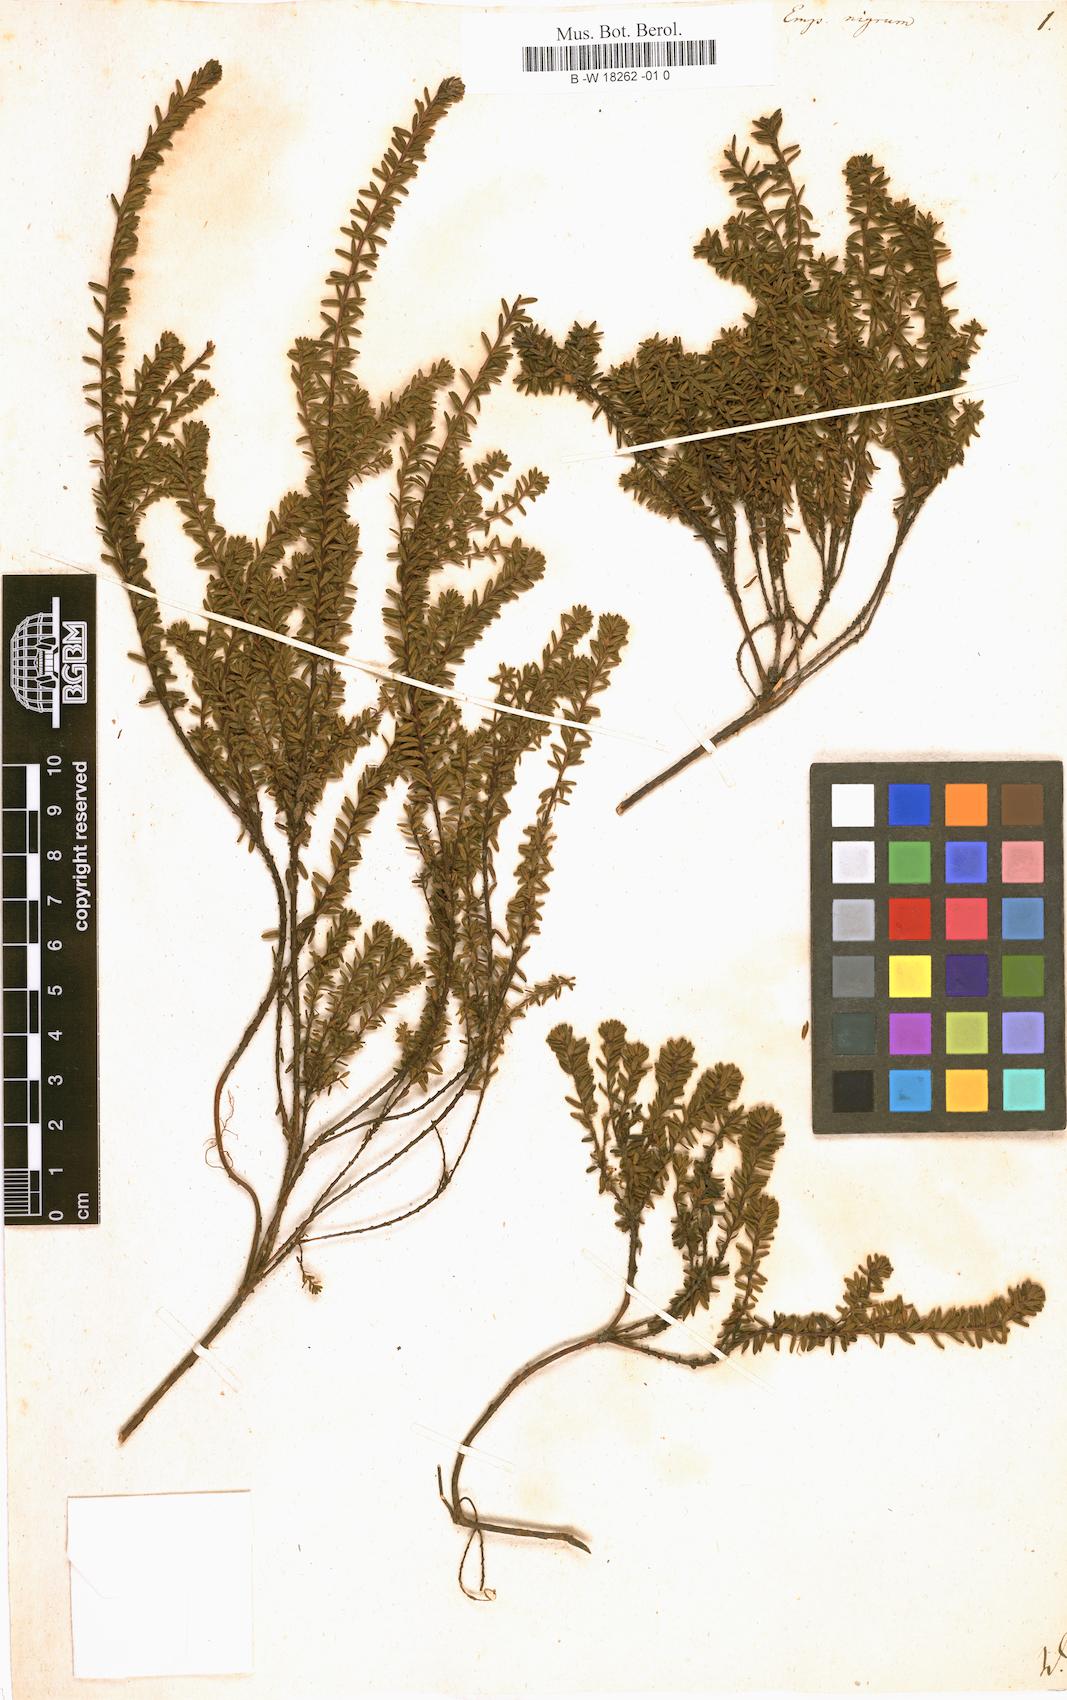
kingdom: Plantae
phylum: Tracheophyta
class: Magnoliopsida
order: Ericales
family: Ericaceae
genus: Empetrum
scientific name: Empetrum nigrum
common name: Black crowberry
